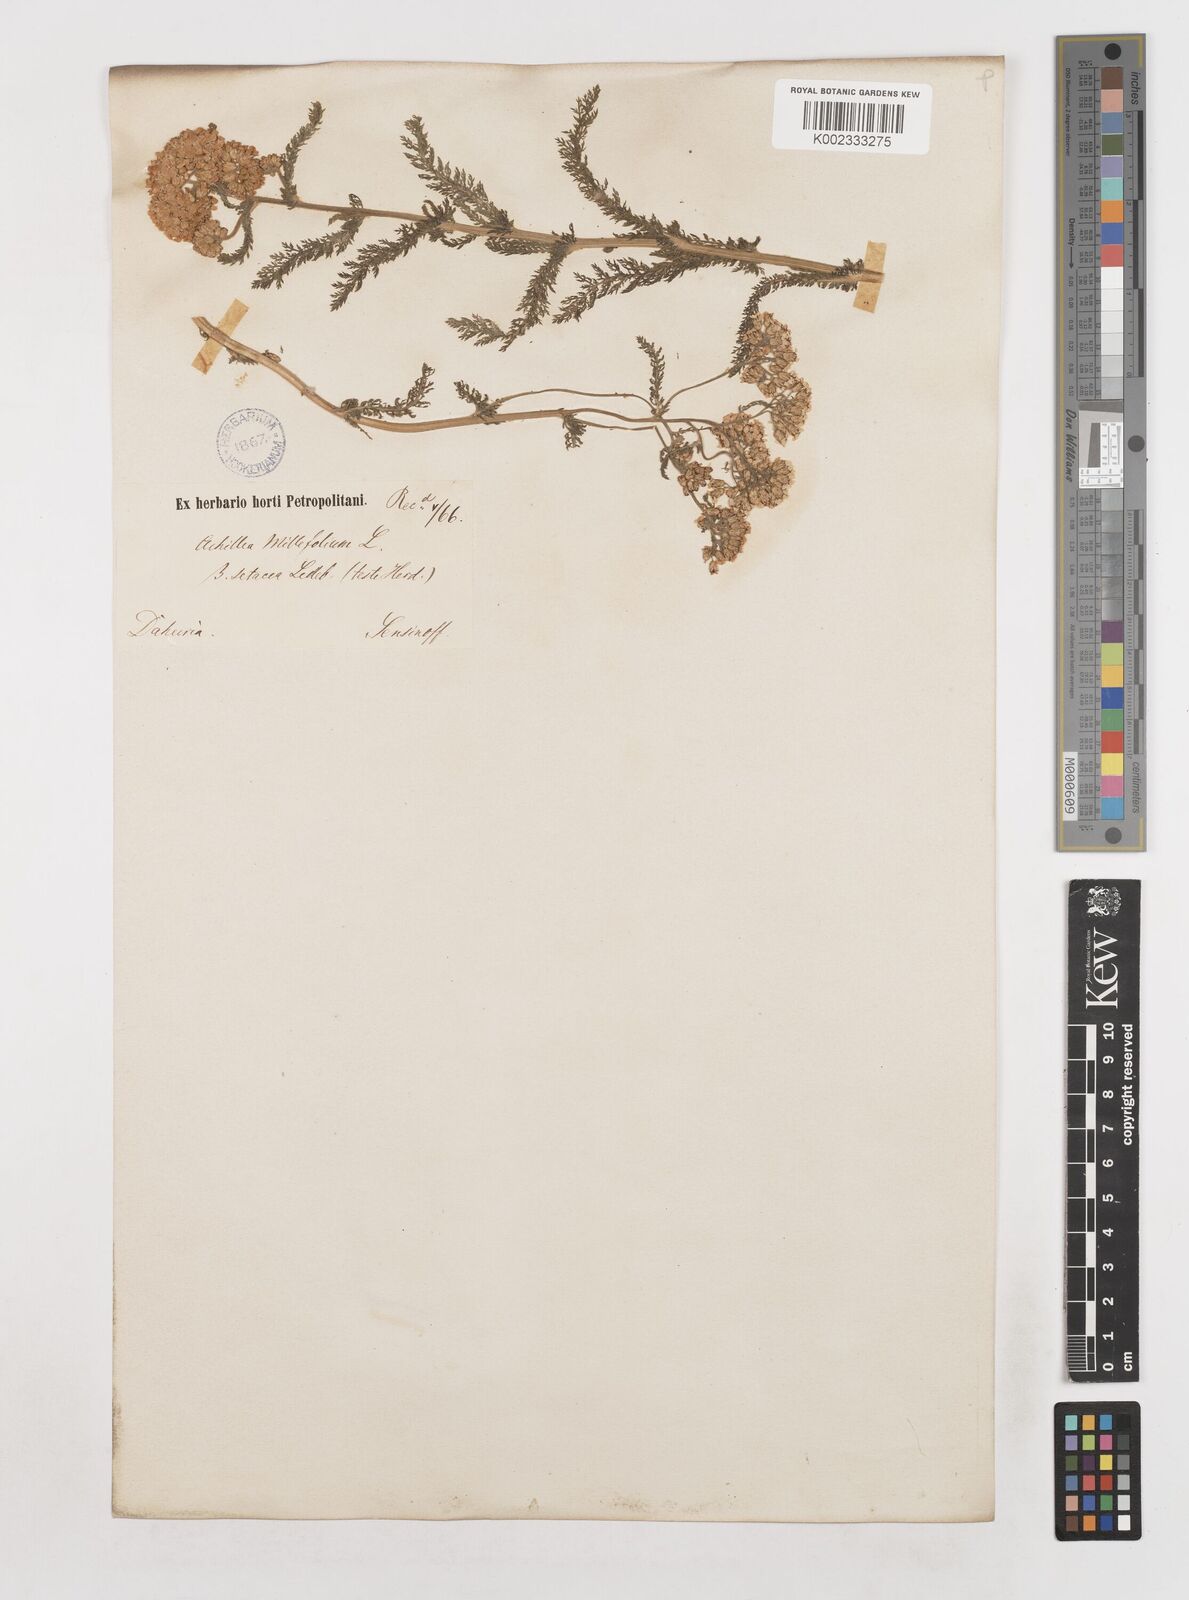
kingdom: Plantae
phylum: Tracheophyta
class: Magnoliopsida
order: Asterales
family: Asteraceae
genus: Achillea
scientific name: Achillea setacea
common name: Bristly yarrow
